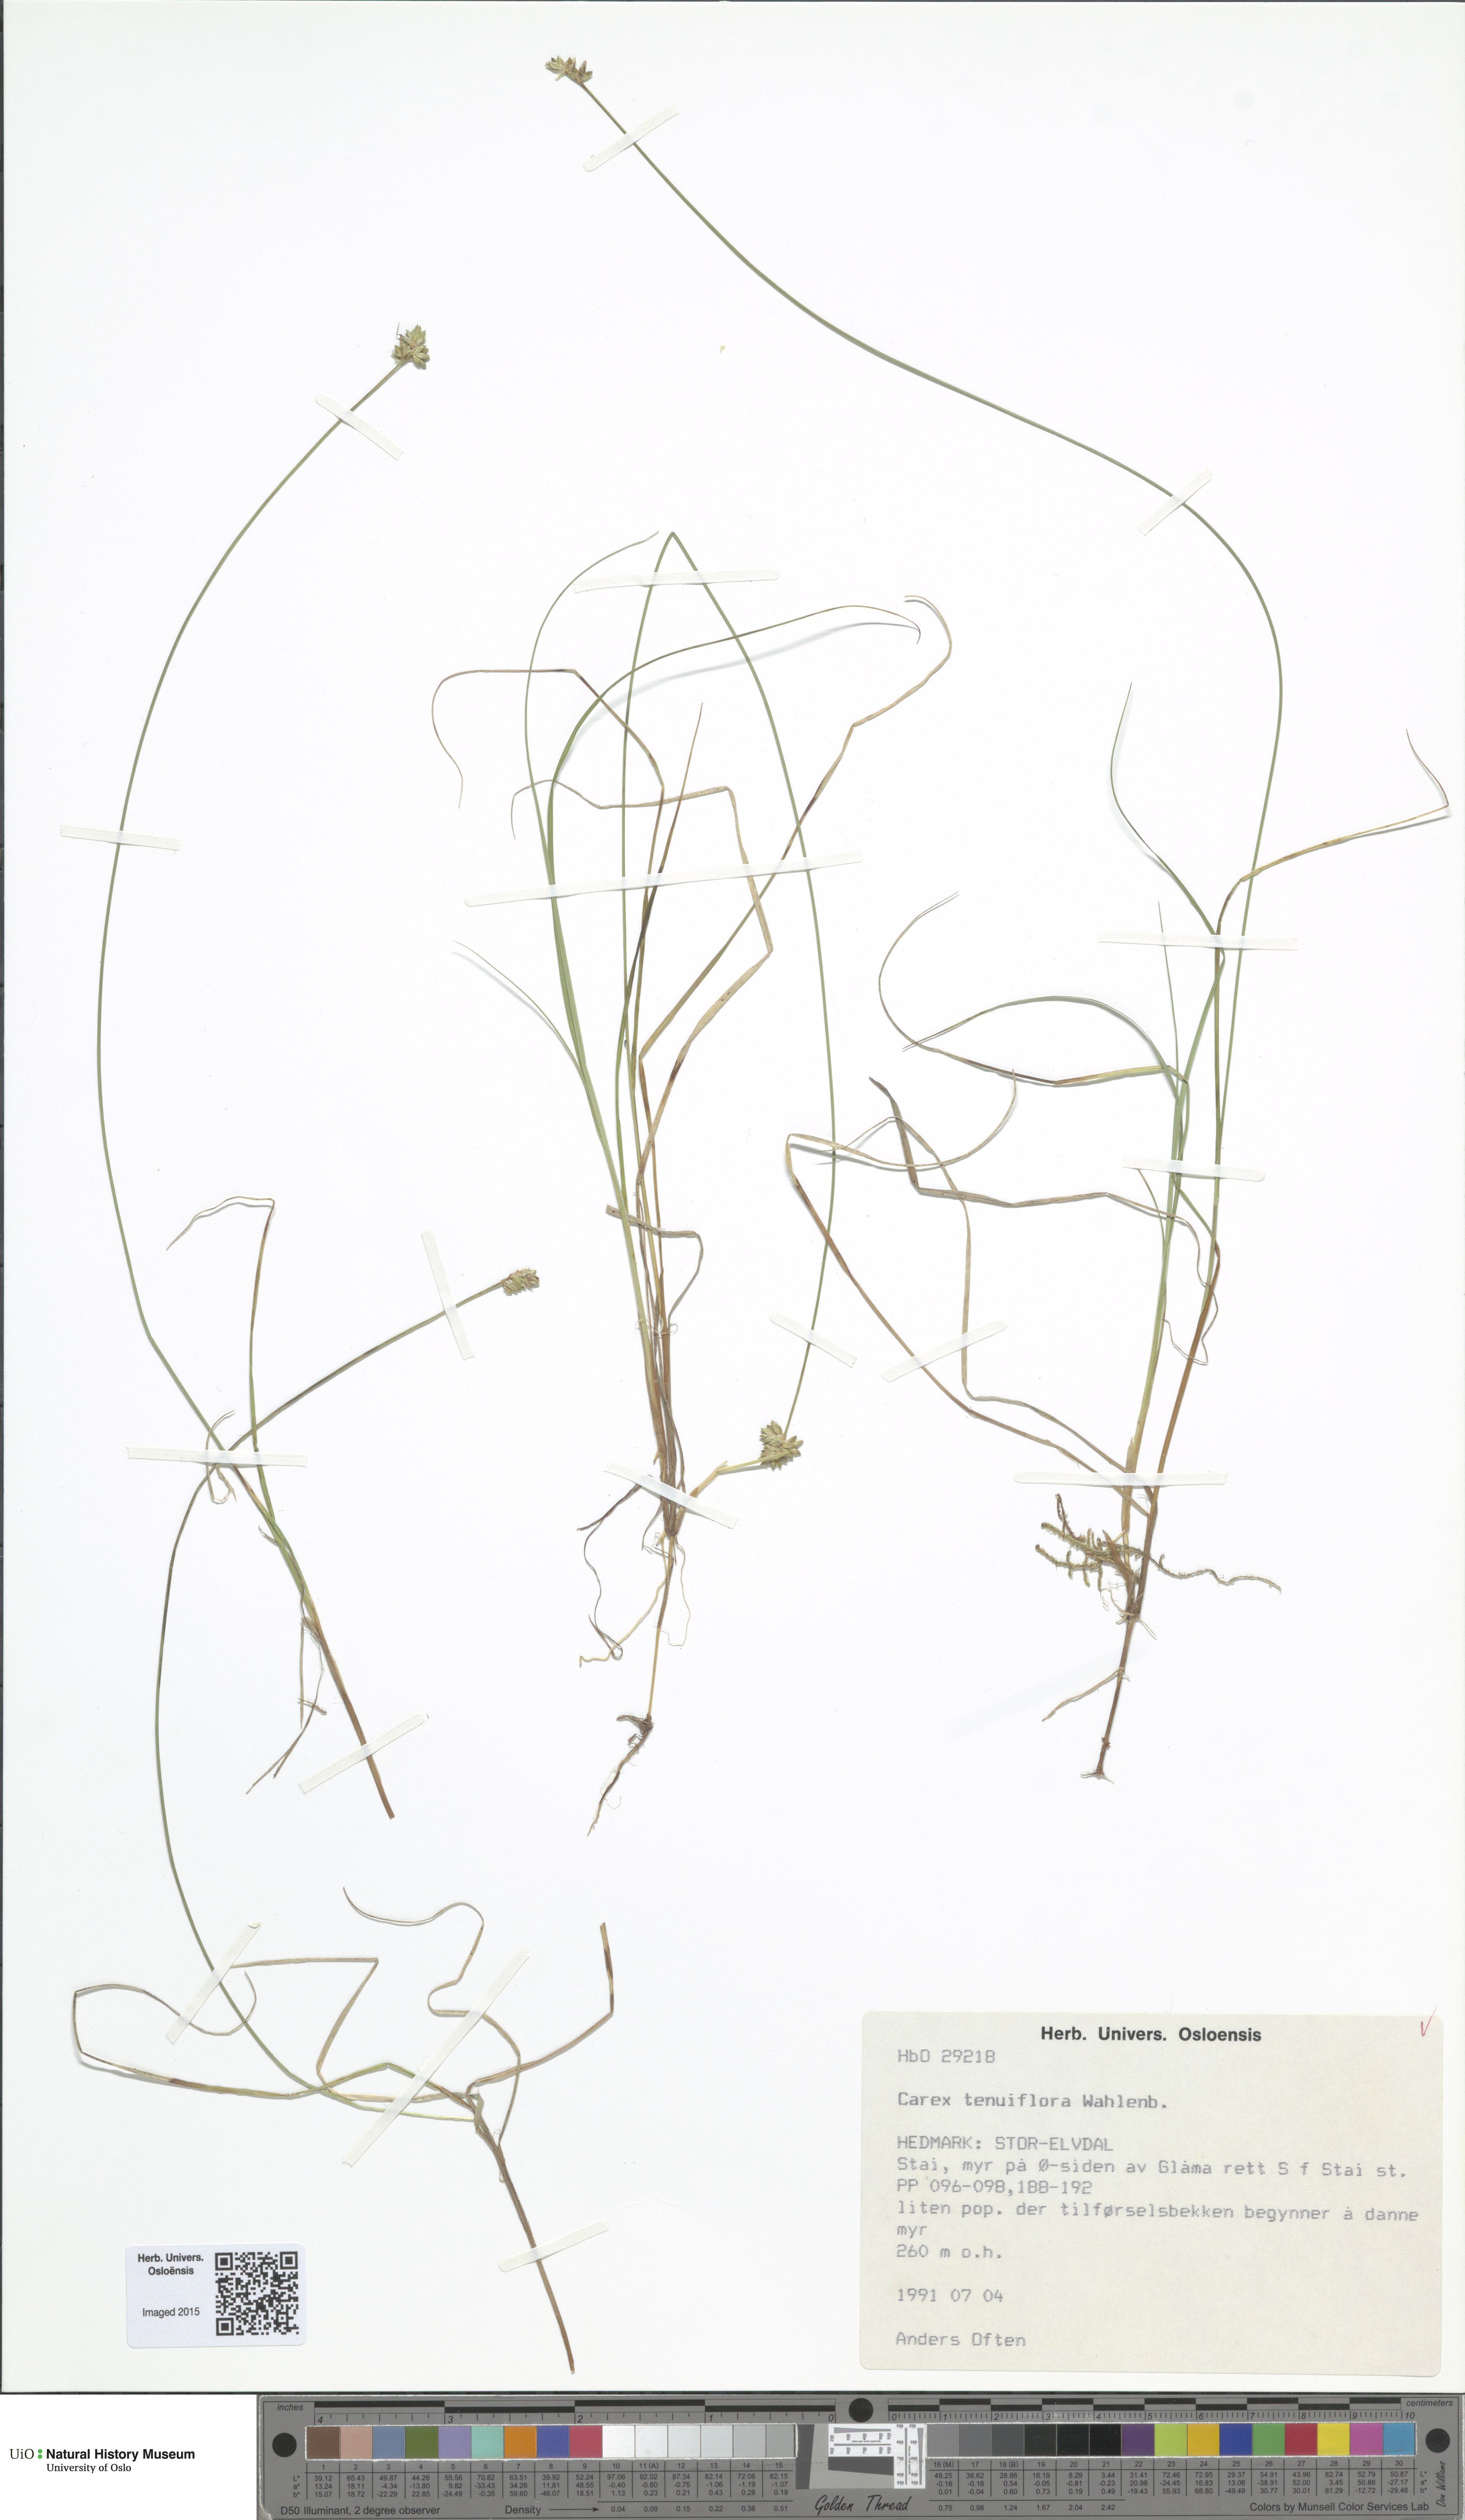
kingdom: Plantae
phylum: Tracheophyta
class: Liliopsida
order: Poales
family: Cyperaceae
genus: Carex
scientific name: Carex tenuiflora
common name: Sparse-flowered sedge
